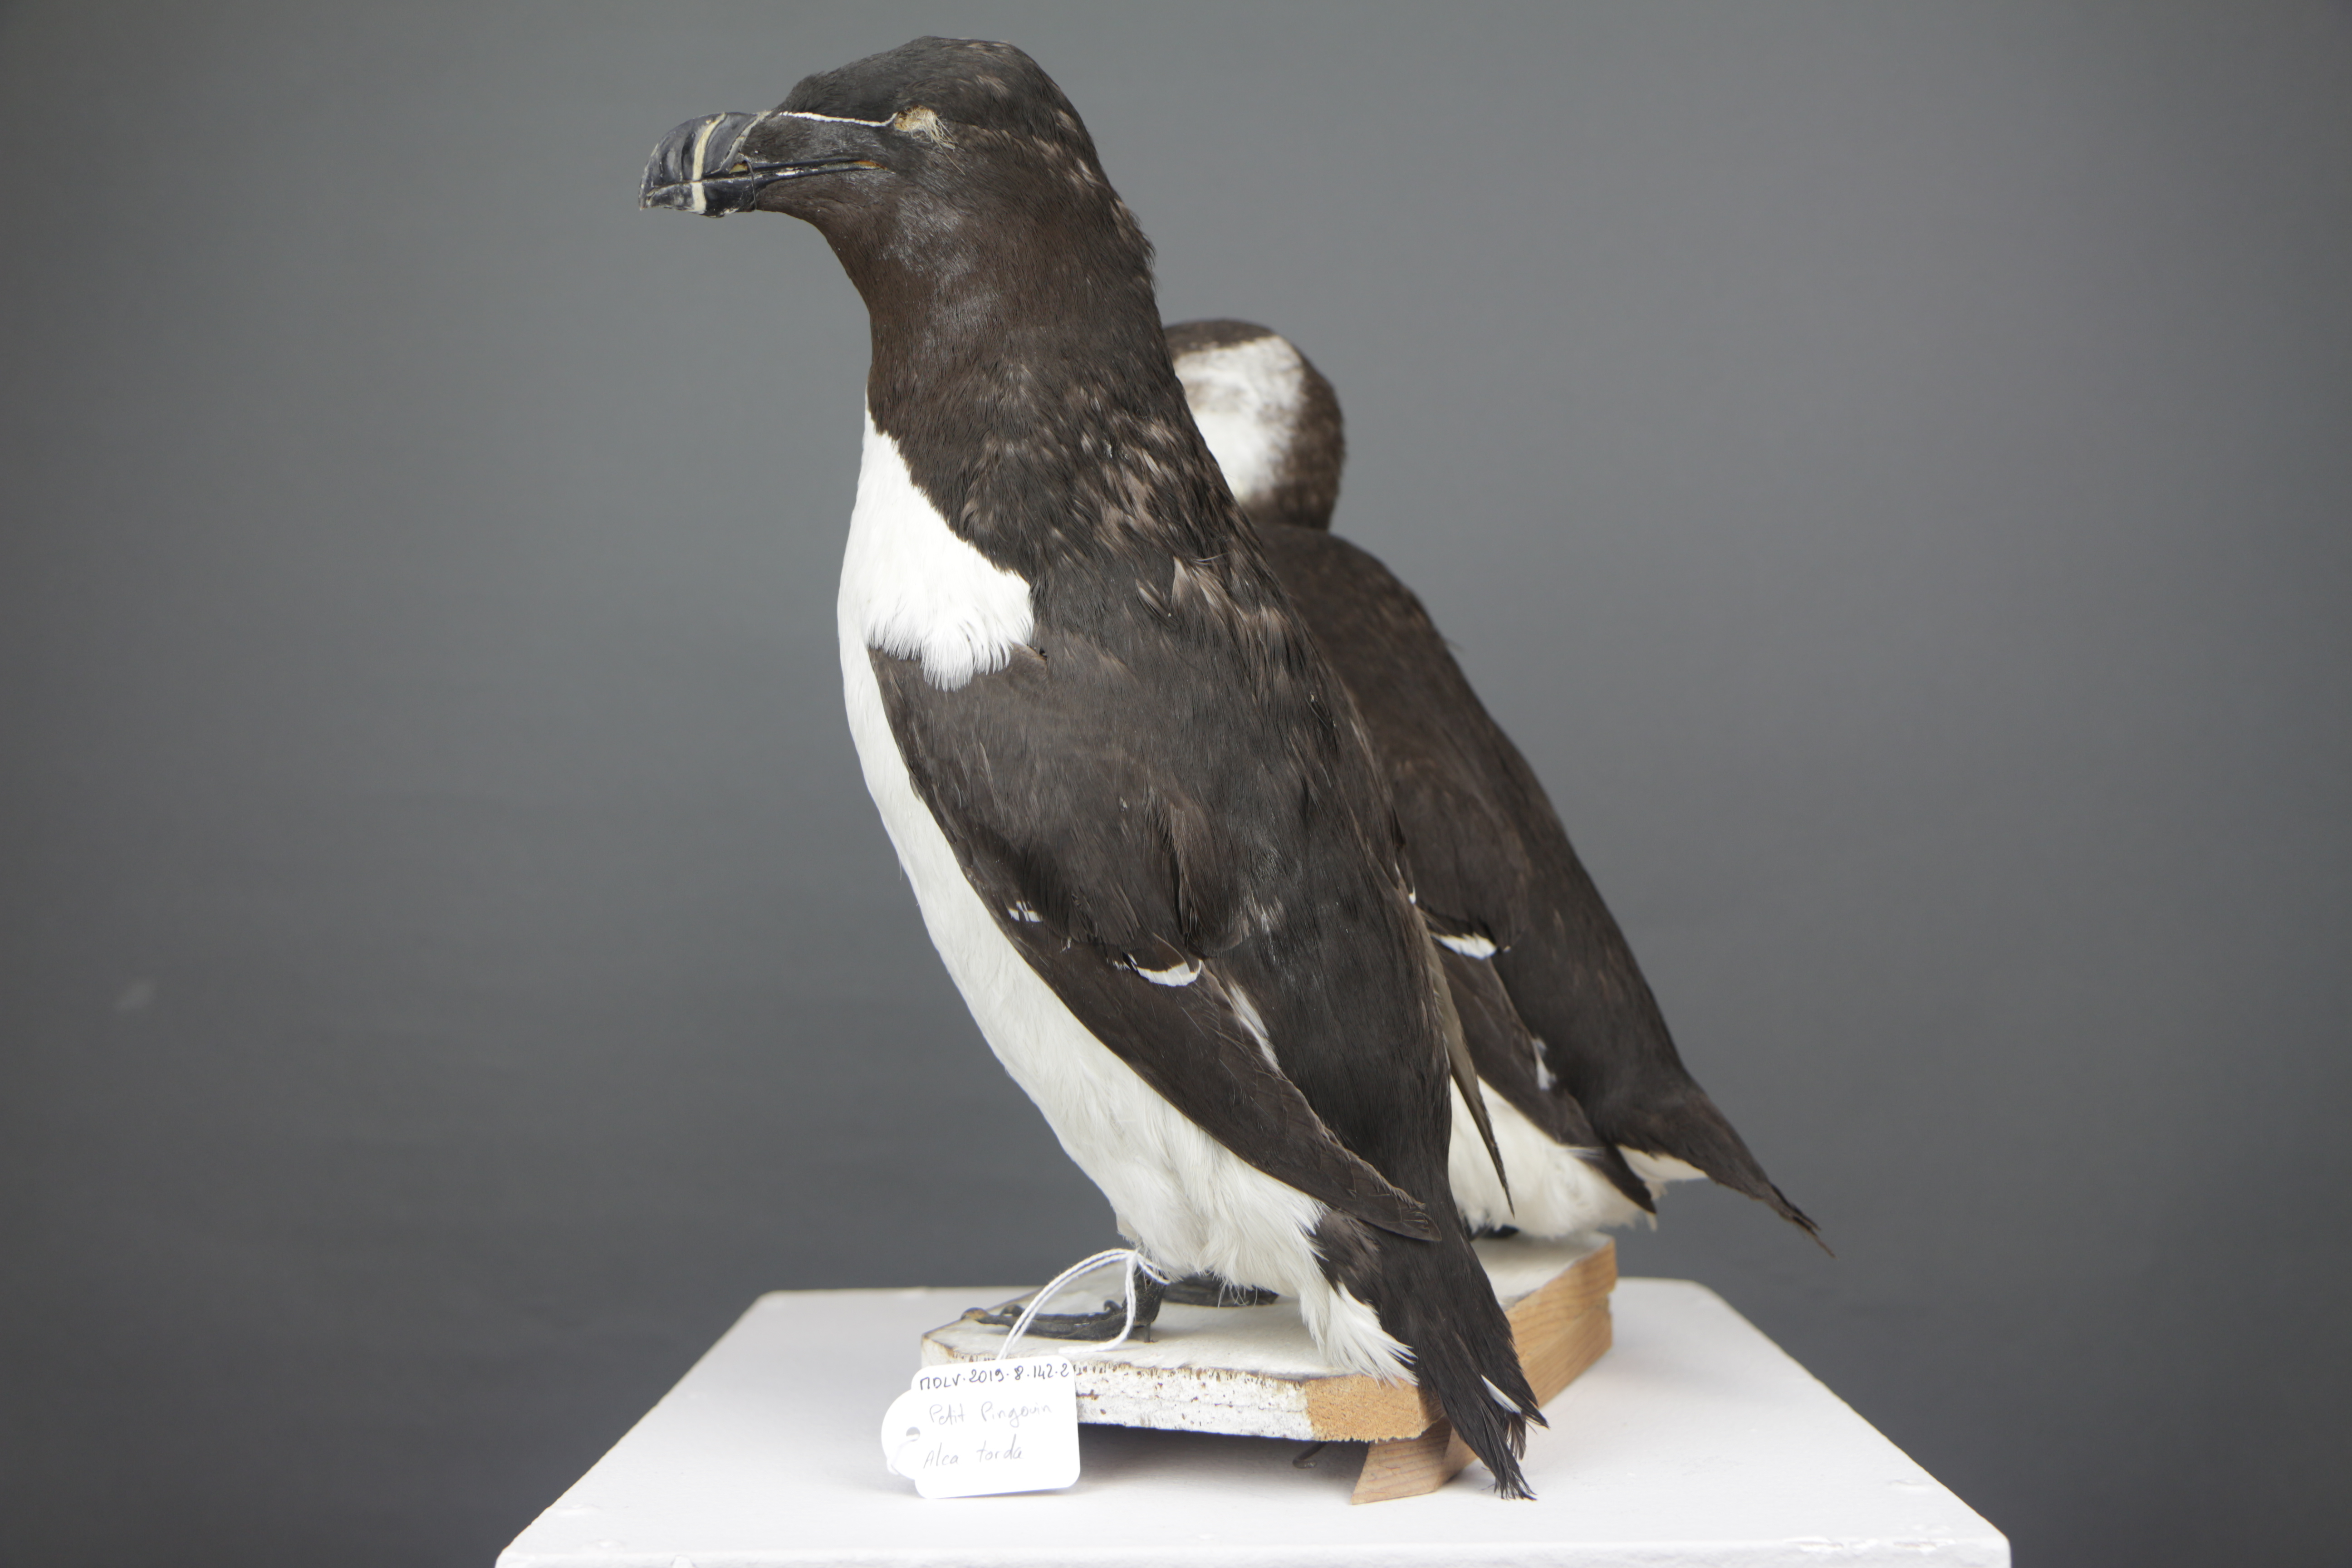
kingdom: Animalia
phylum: Chordata
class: Aves
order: Charadriiformes
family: Alcidae
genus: Alca
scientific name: Alca torda
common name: Razorbill
